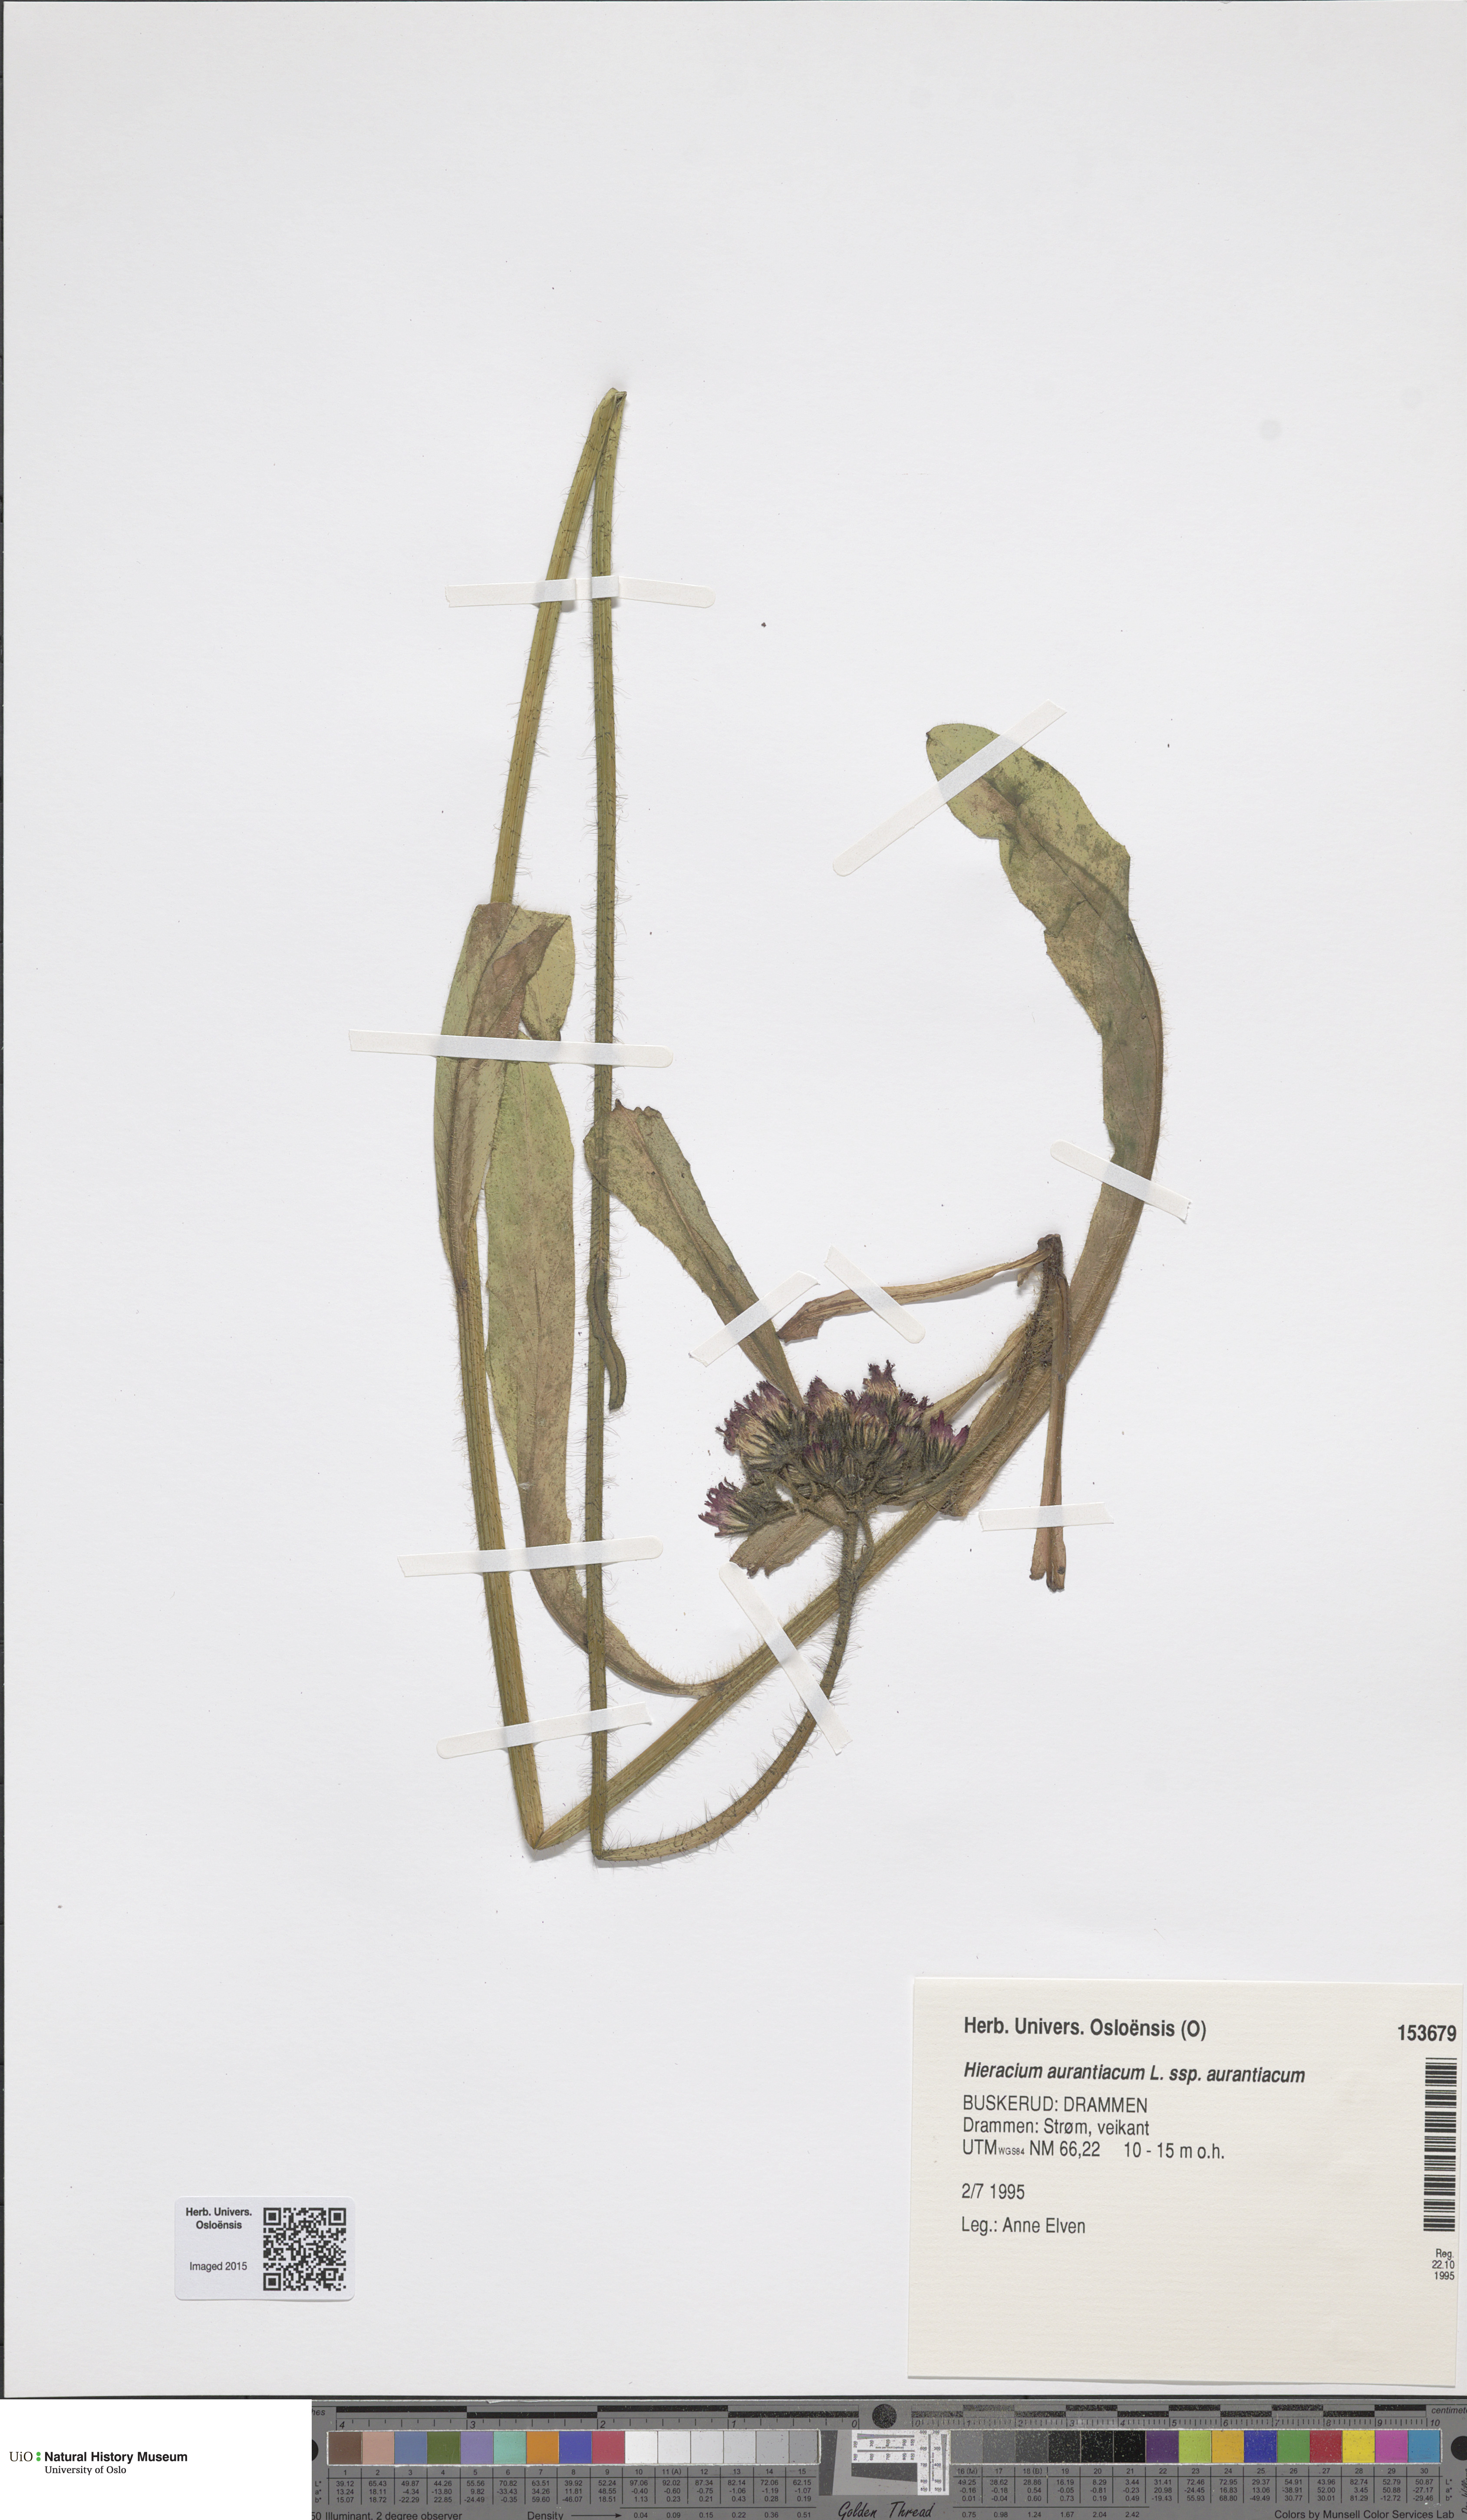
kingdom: Plantae
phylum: Tracheophyta
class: Magnoliopsida
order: Asterales
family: Asteraceae
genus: Pilosella
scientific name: Pilosella aurantiaca
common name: Fox-and-cubs
